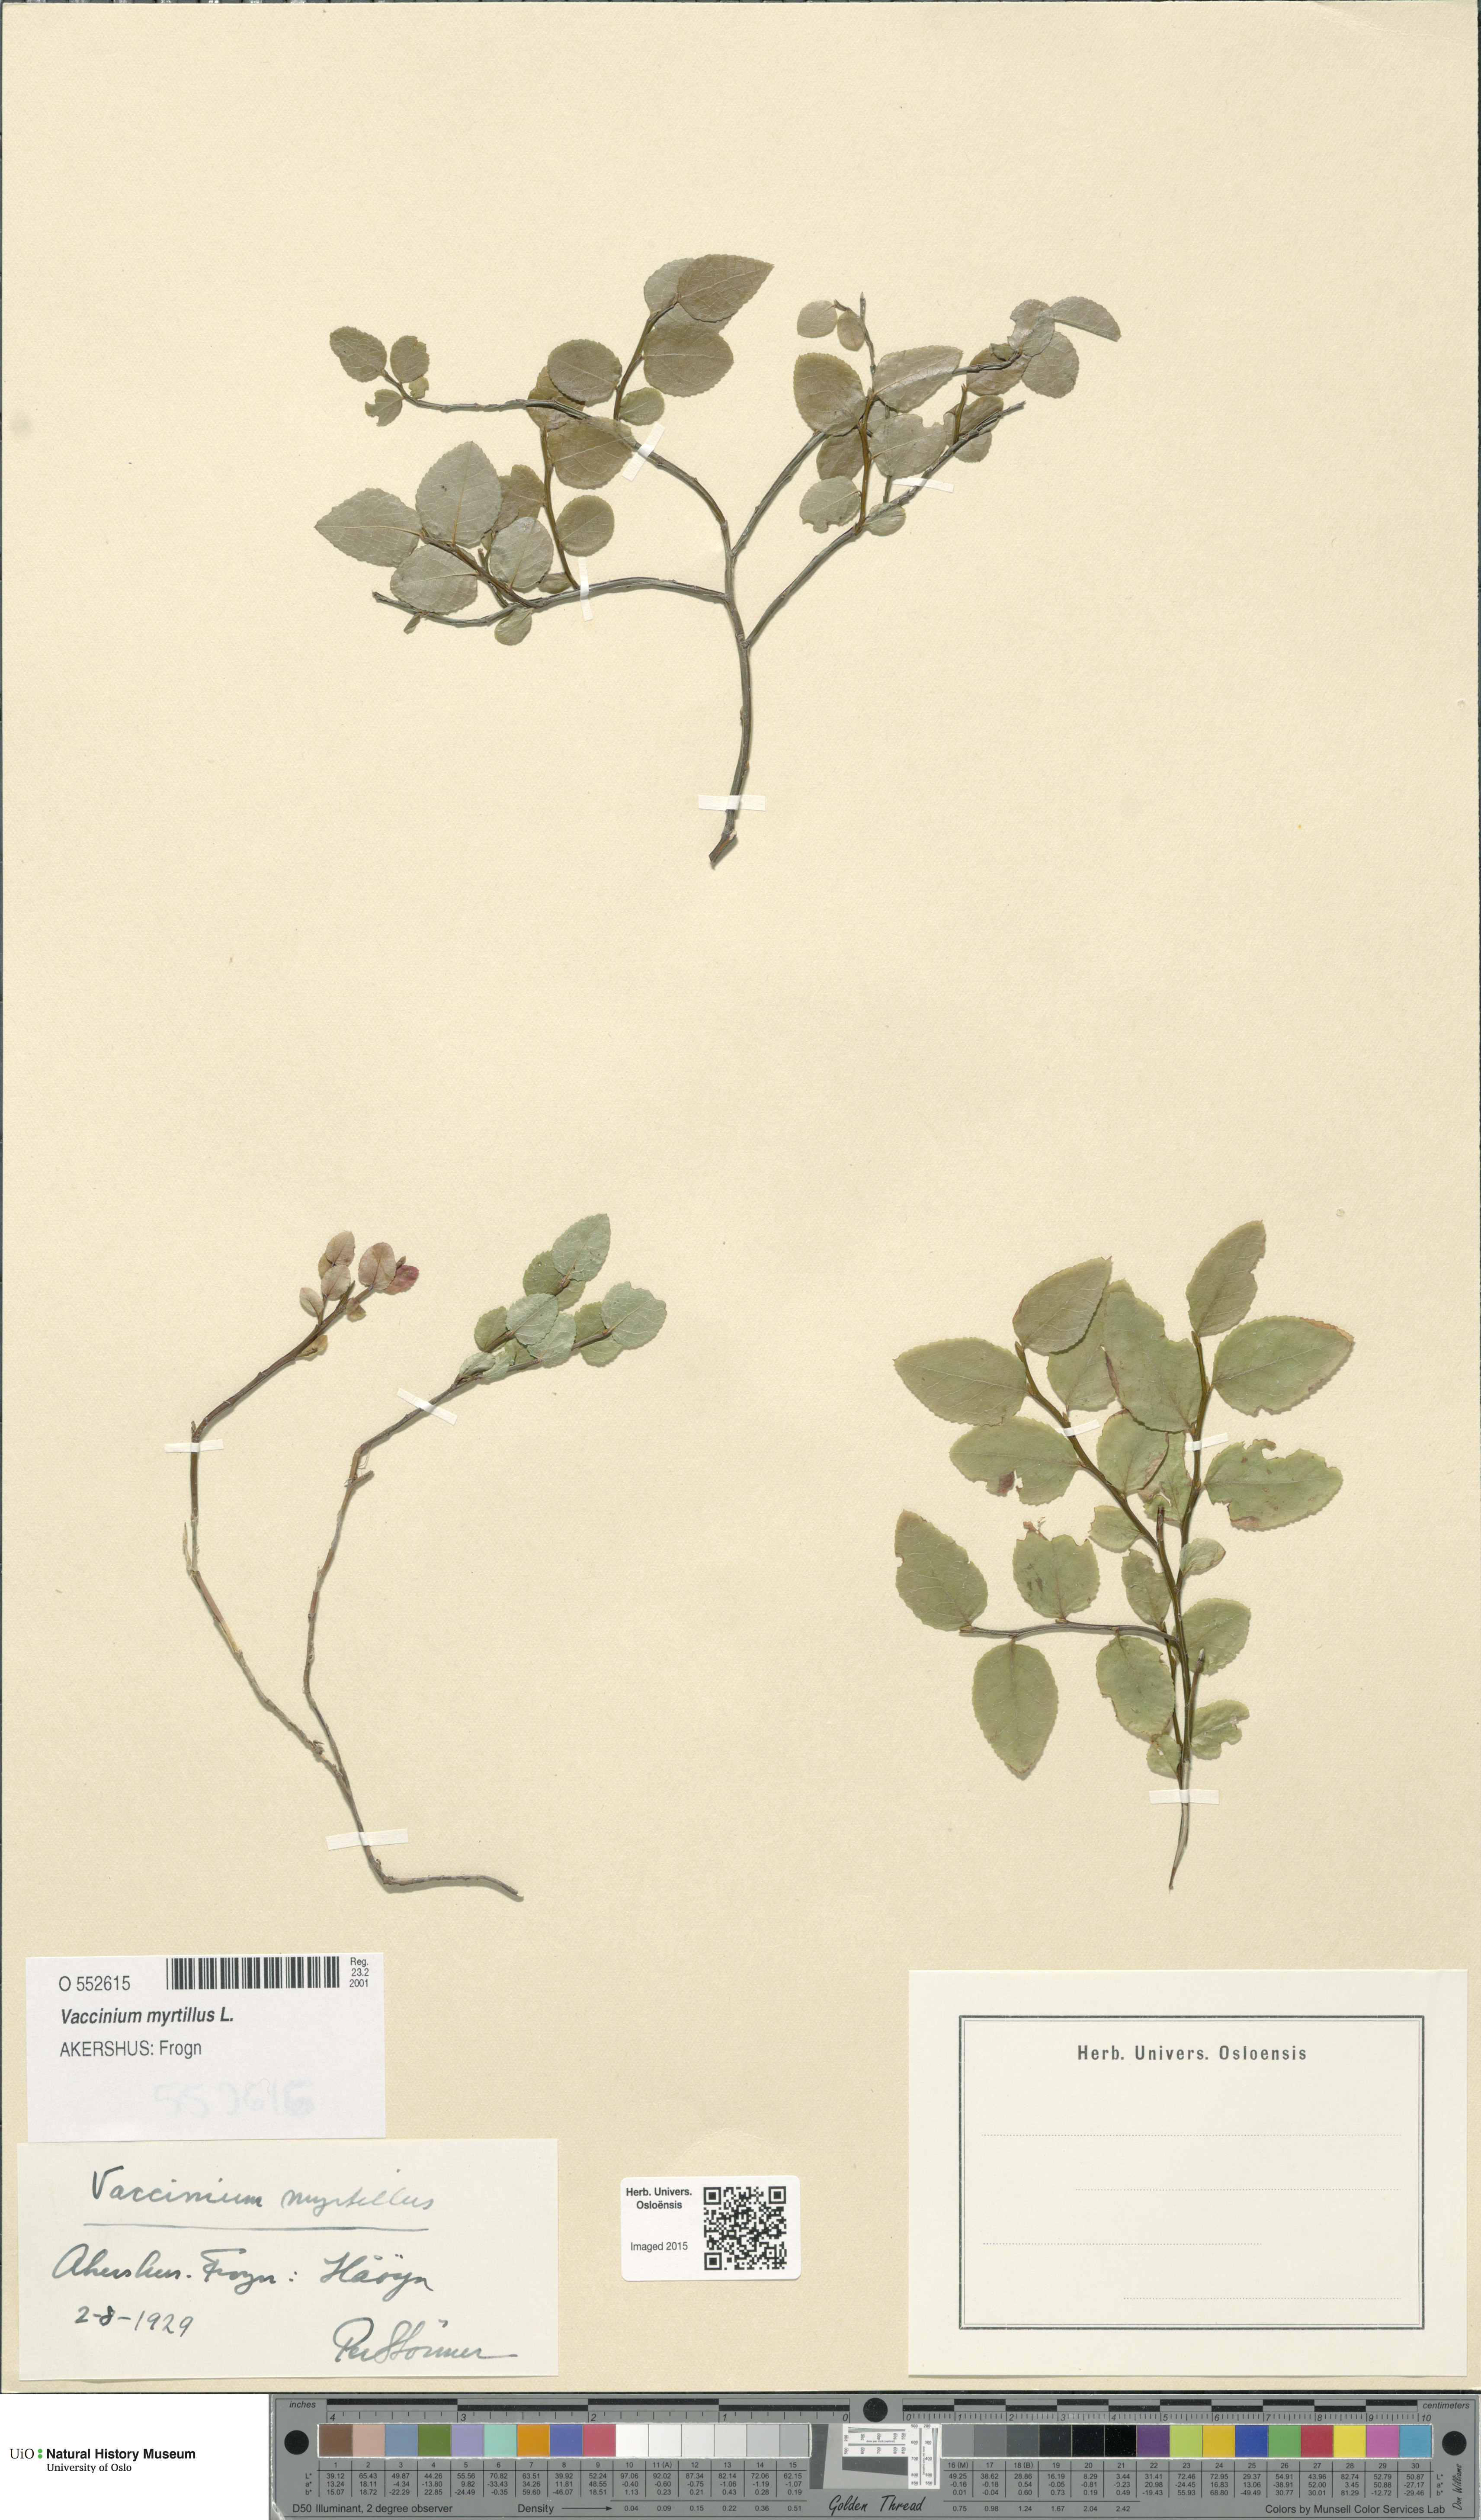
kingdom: Plantae
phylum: Tracheophyta
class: Magnoliopsida
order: Ericales
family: Ericaceae
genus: Vaccinium
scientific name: Vaccinium myrtillus
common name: Bilberry
